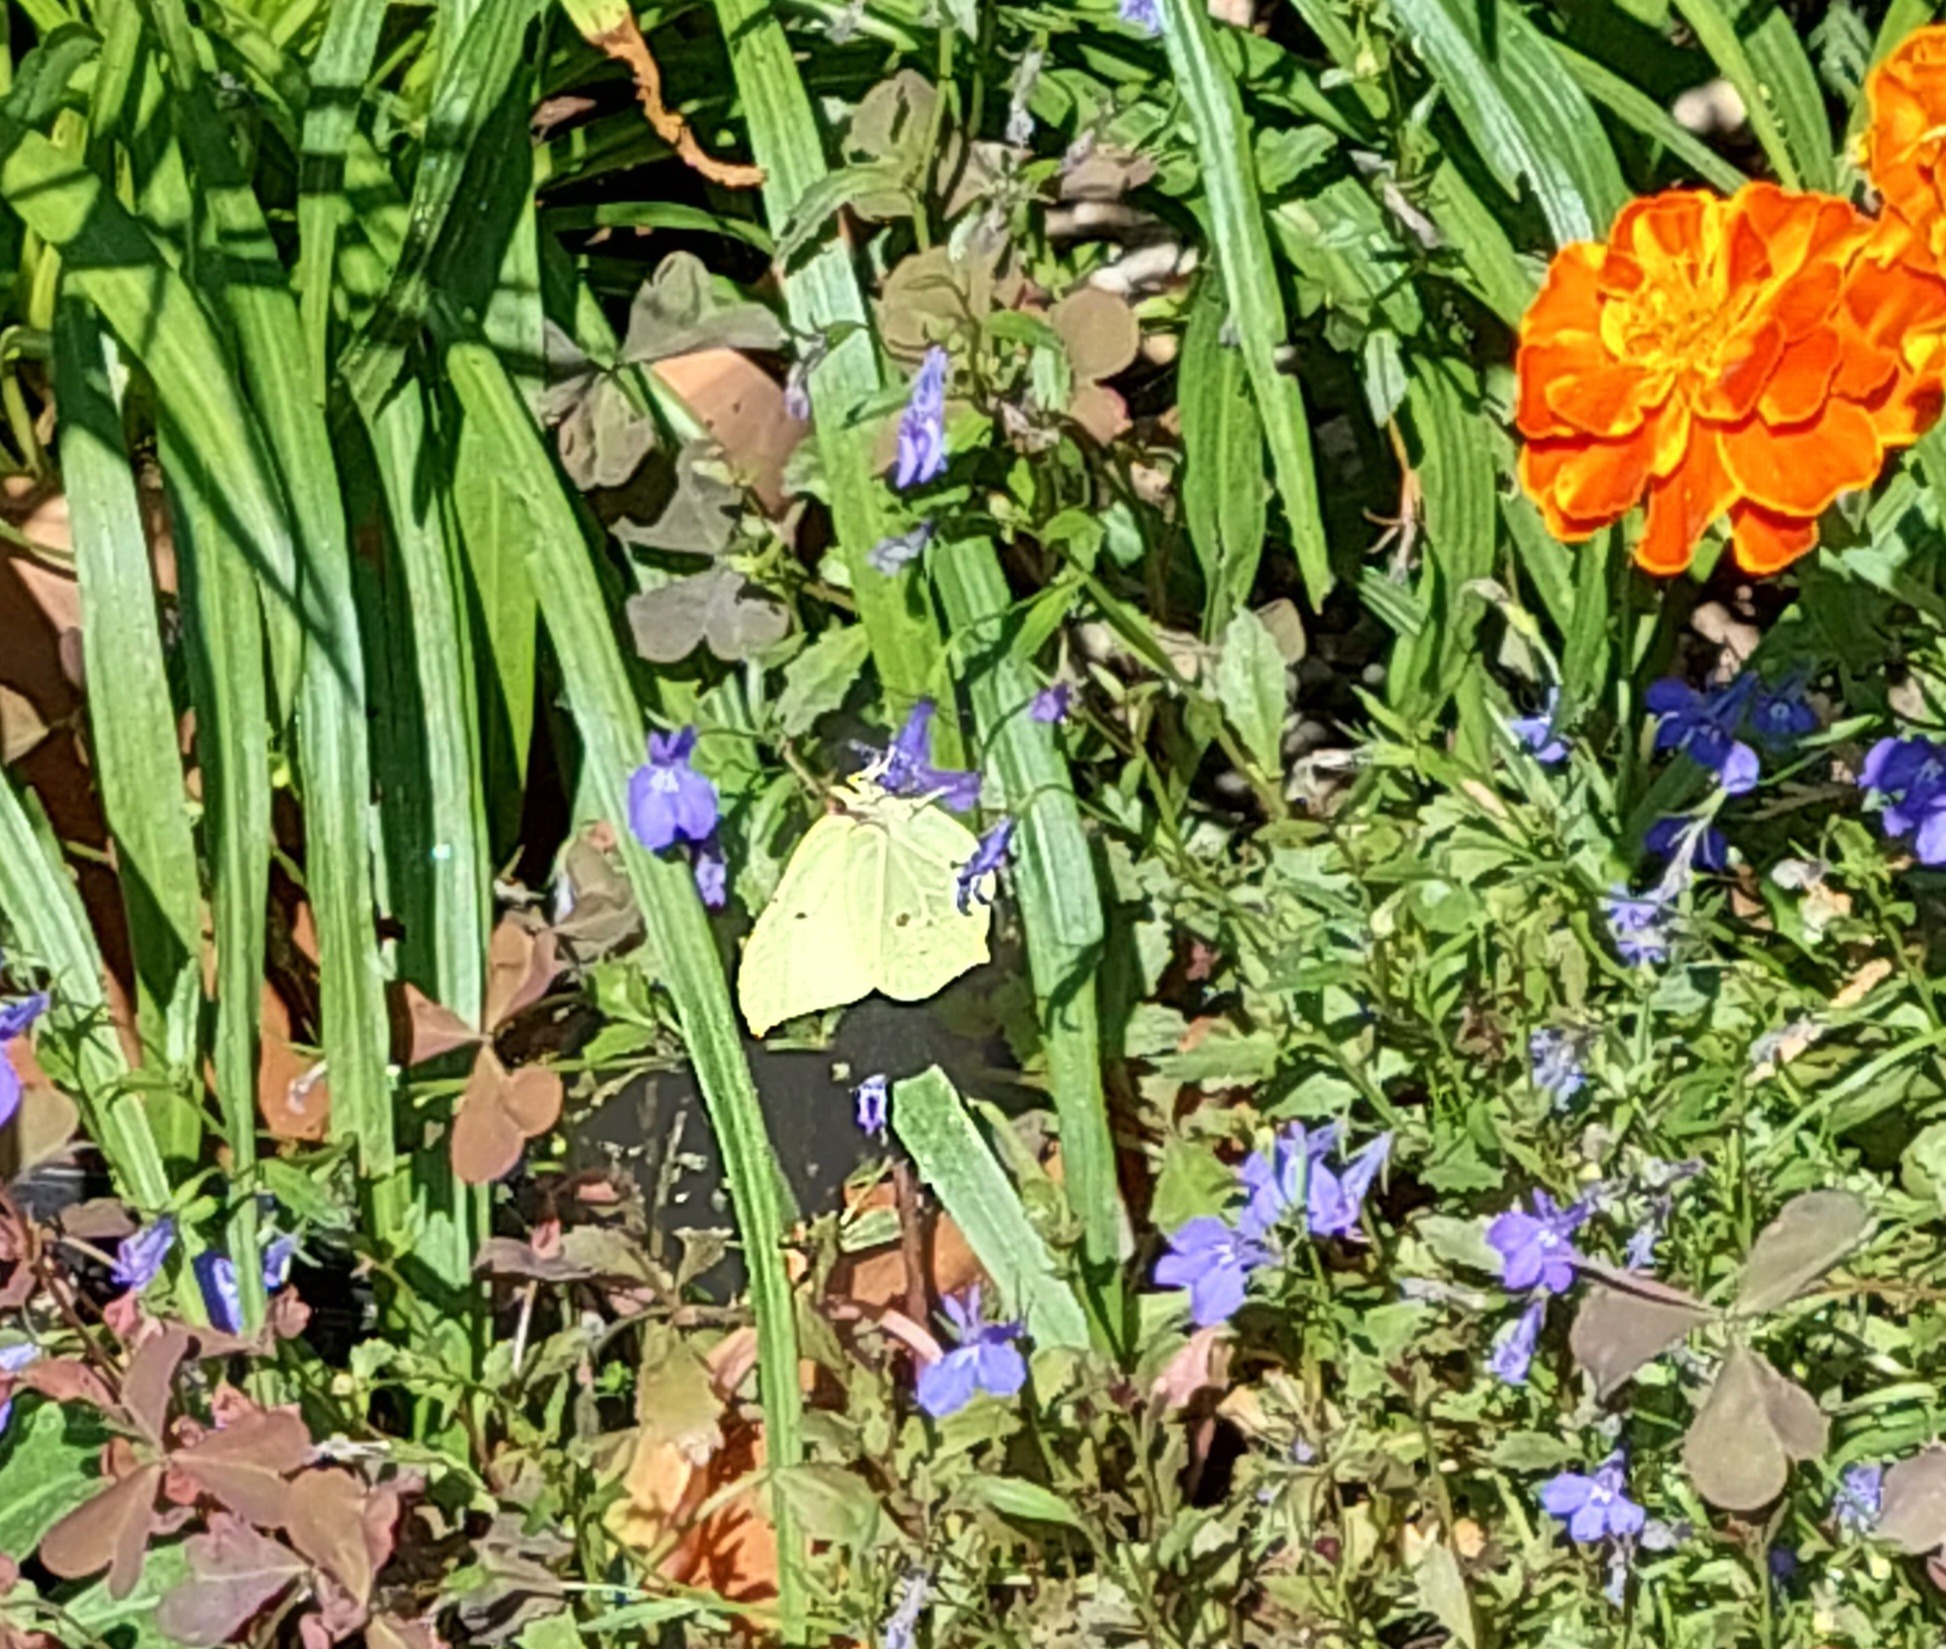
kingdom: Animalia
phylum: Arthropoda
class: Insecta
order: Lepidoptera
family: Pieridae
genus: Gonepteryx
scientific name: Gonepteryx rhamni
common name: Citronsommerfugl
